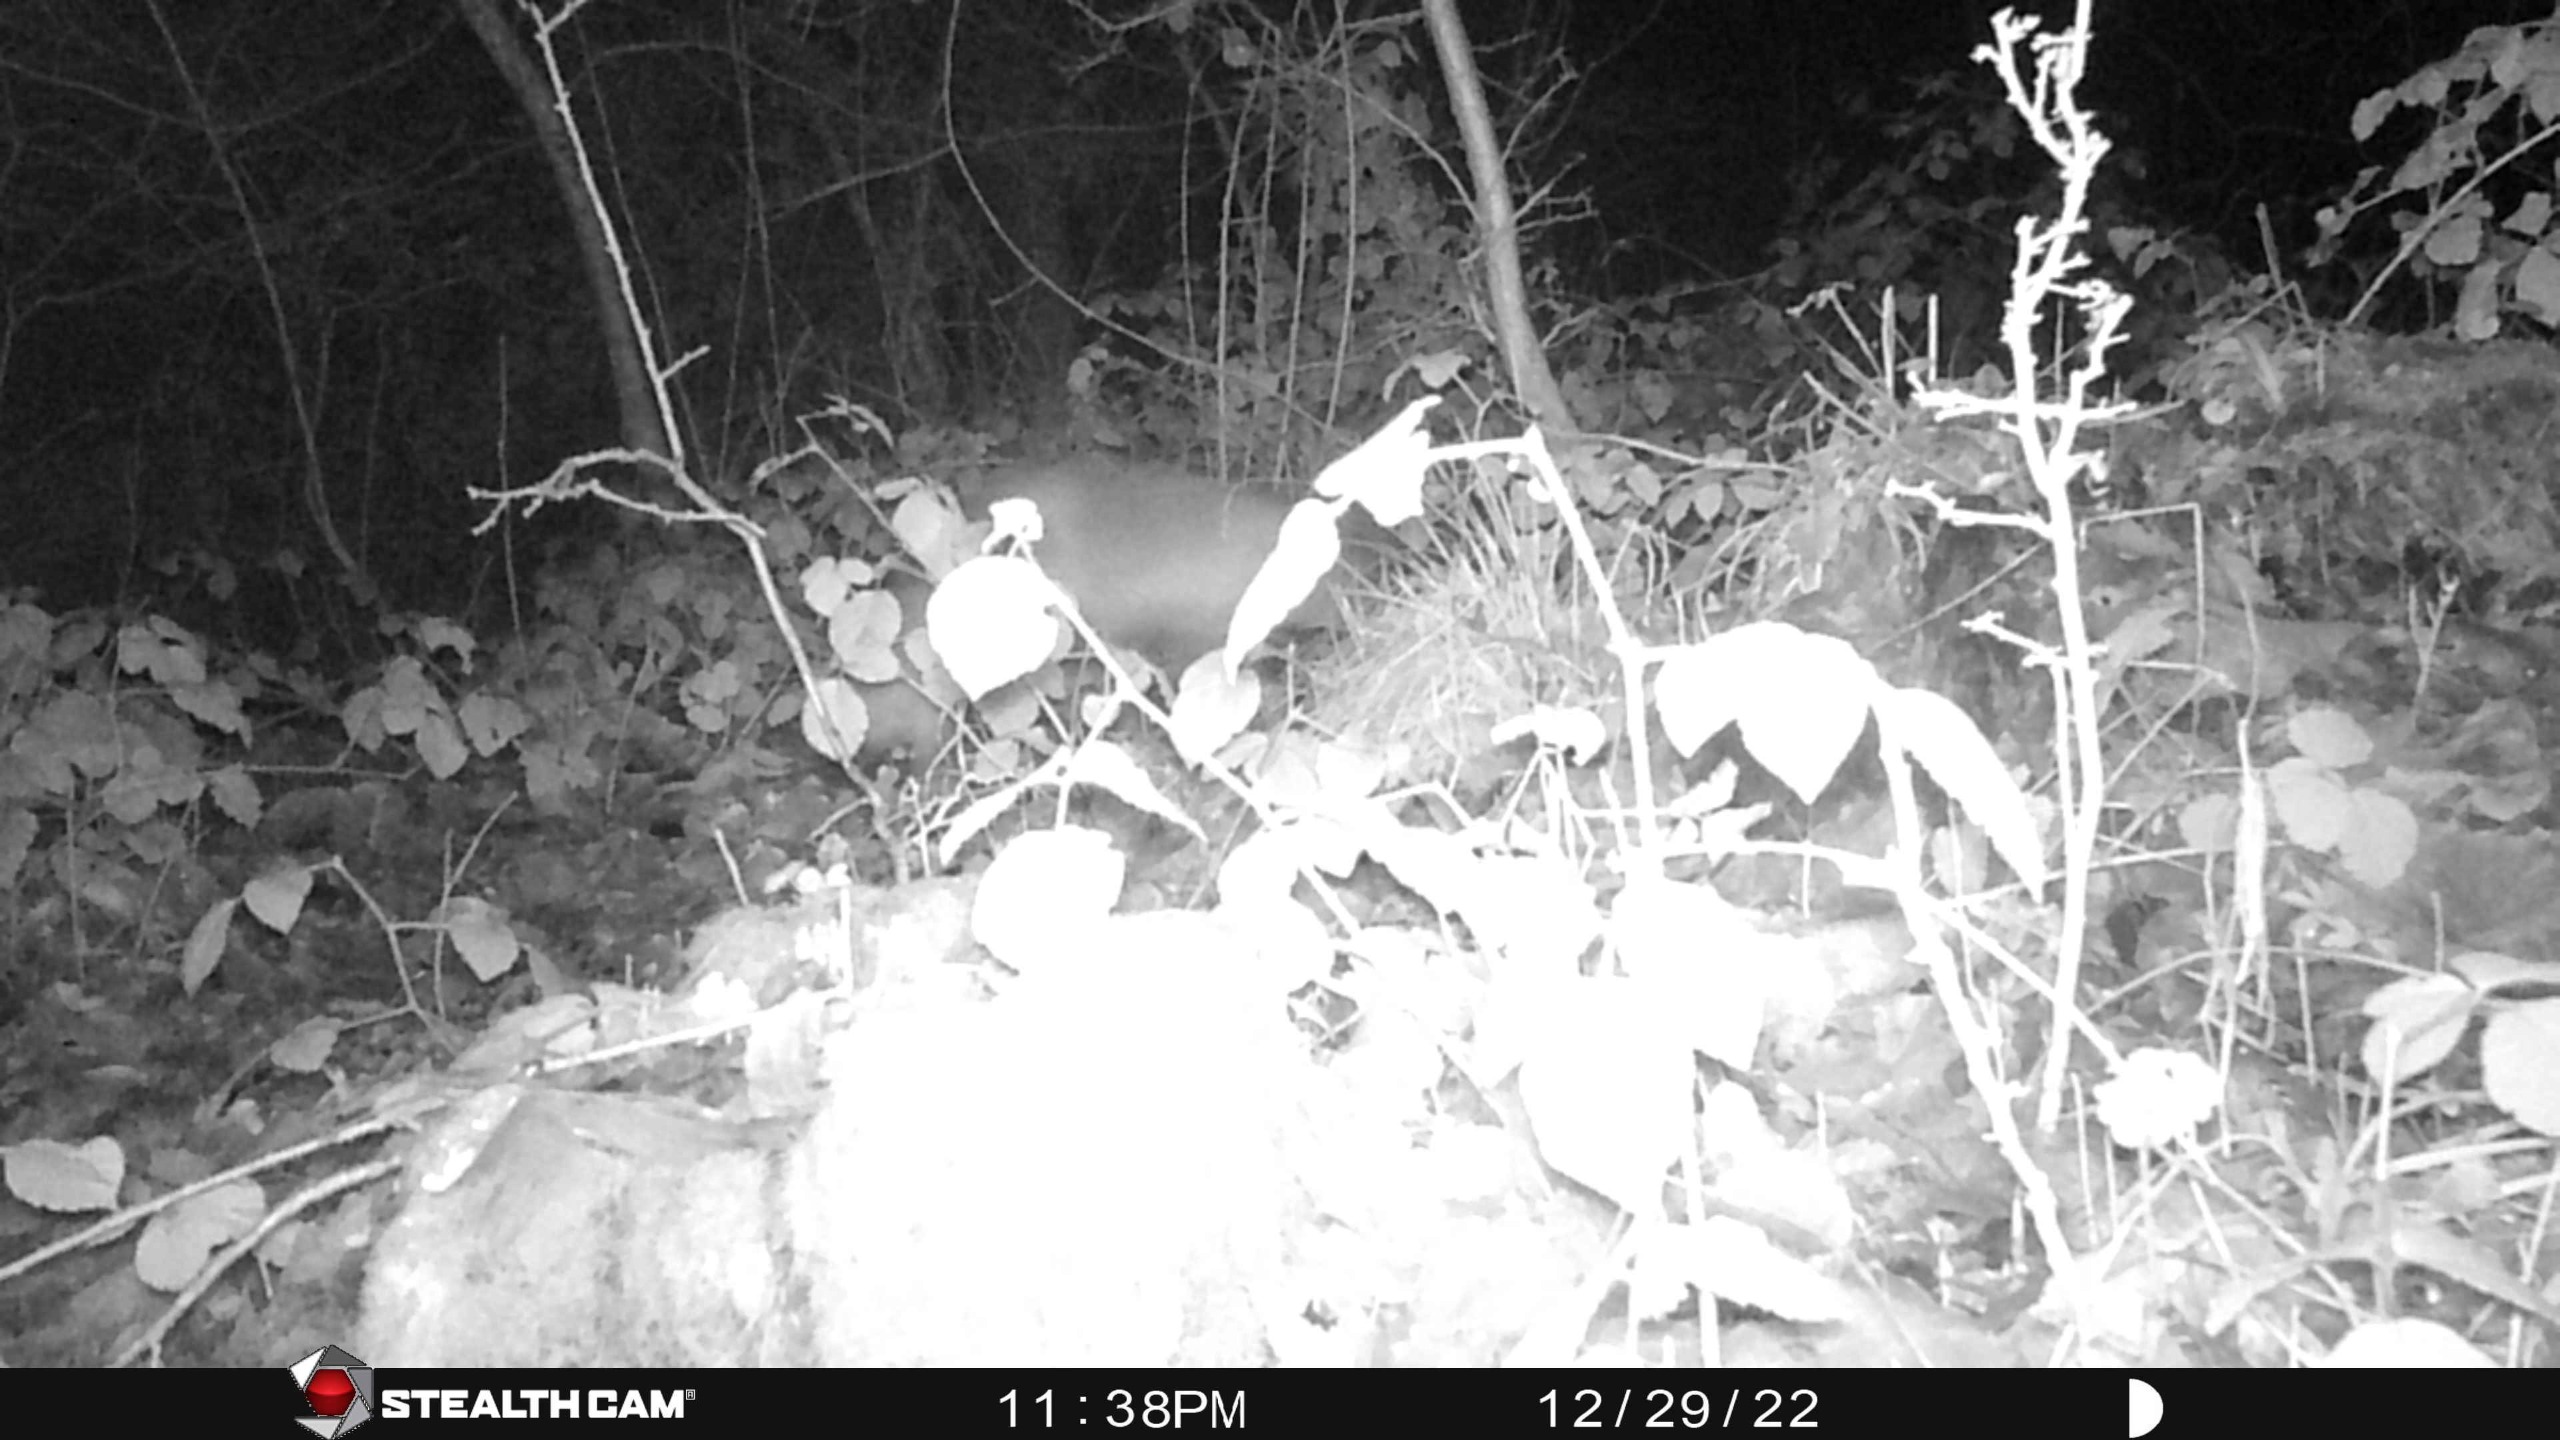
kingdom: Animalia
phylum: Chordata
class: Mammalia
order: Carnivora
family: Canidae
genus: Vulpes
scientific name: Vulpes vulpes
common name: Ræv
